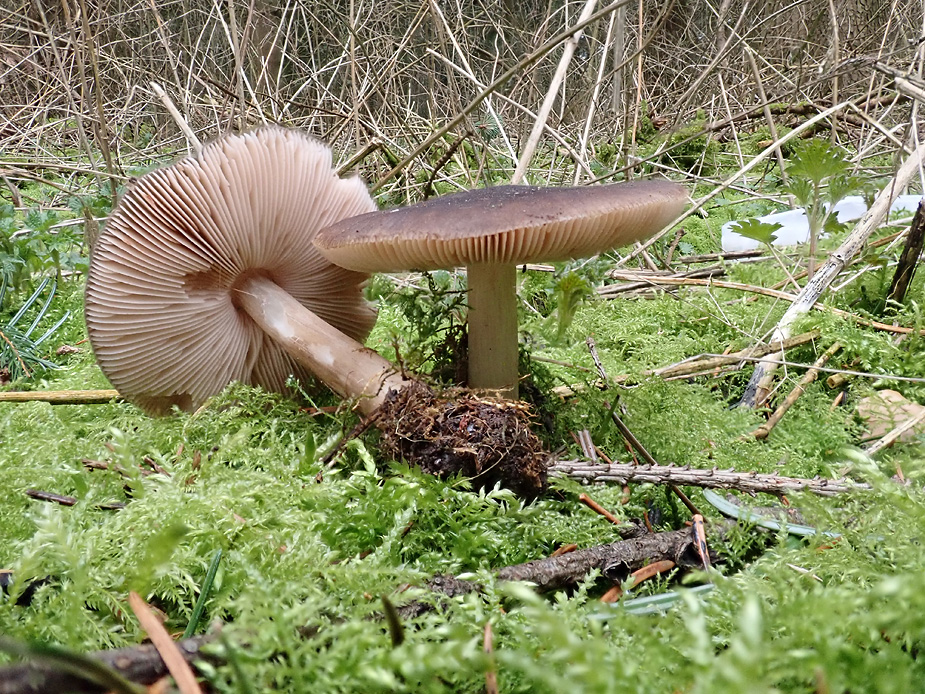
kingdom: Fungi
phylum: Basidiomycota
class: Agaricomycetes
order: Agaricales
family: Pluteaceae
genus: Pluteus
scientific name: Pluteus primus
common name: tidlig skærmhat
